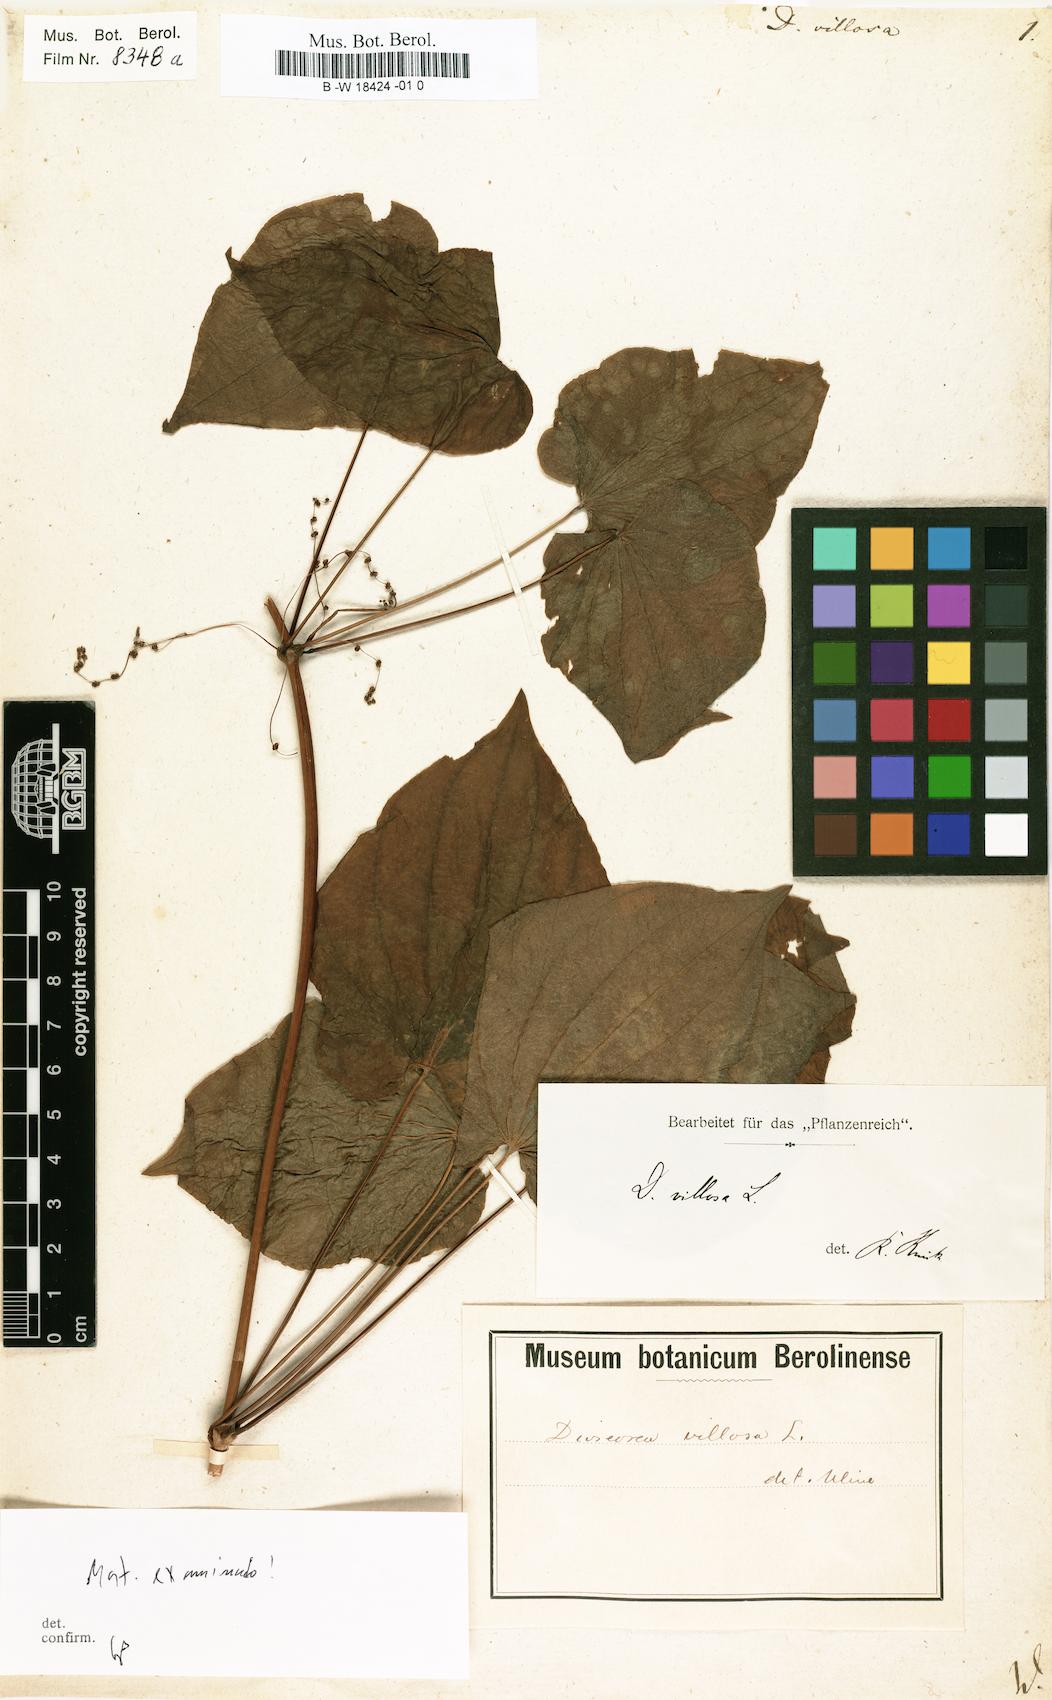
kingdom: Plantae
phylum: Tracheophyta
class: Liliopsida
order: Dioscoreales
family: Dioscoreaceae
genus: Dioscorea
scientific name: Dioscorea villosa
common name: Wild yam
